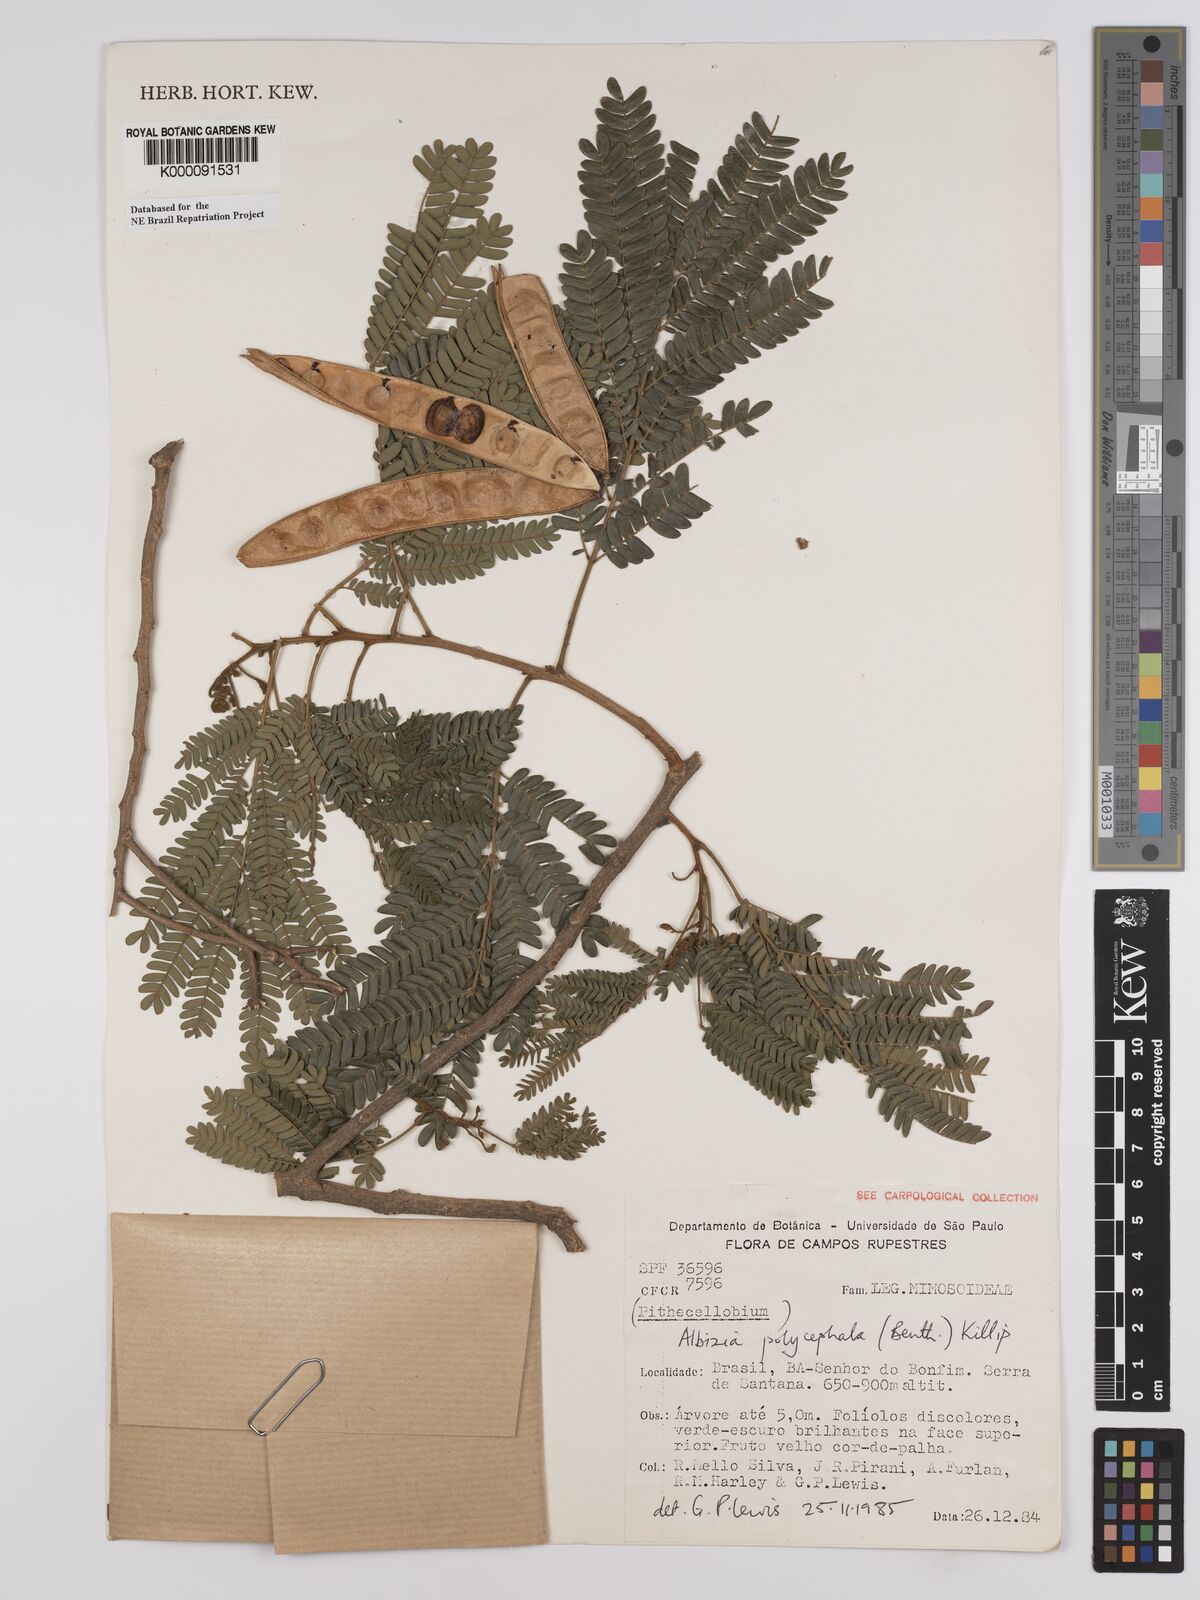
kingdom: Plantae
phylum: Tracheophyta
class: Magnoliopsida
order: Fabales
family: Fabaceae
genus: Albizia
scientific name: Albizia polycephala
